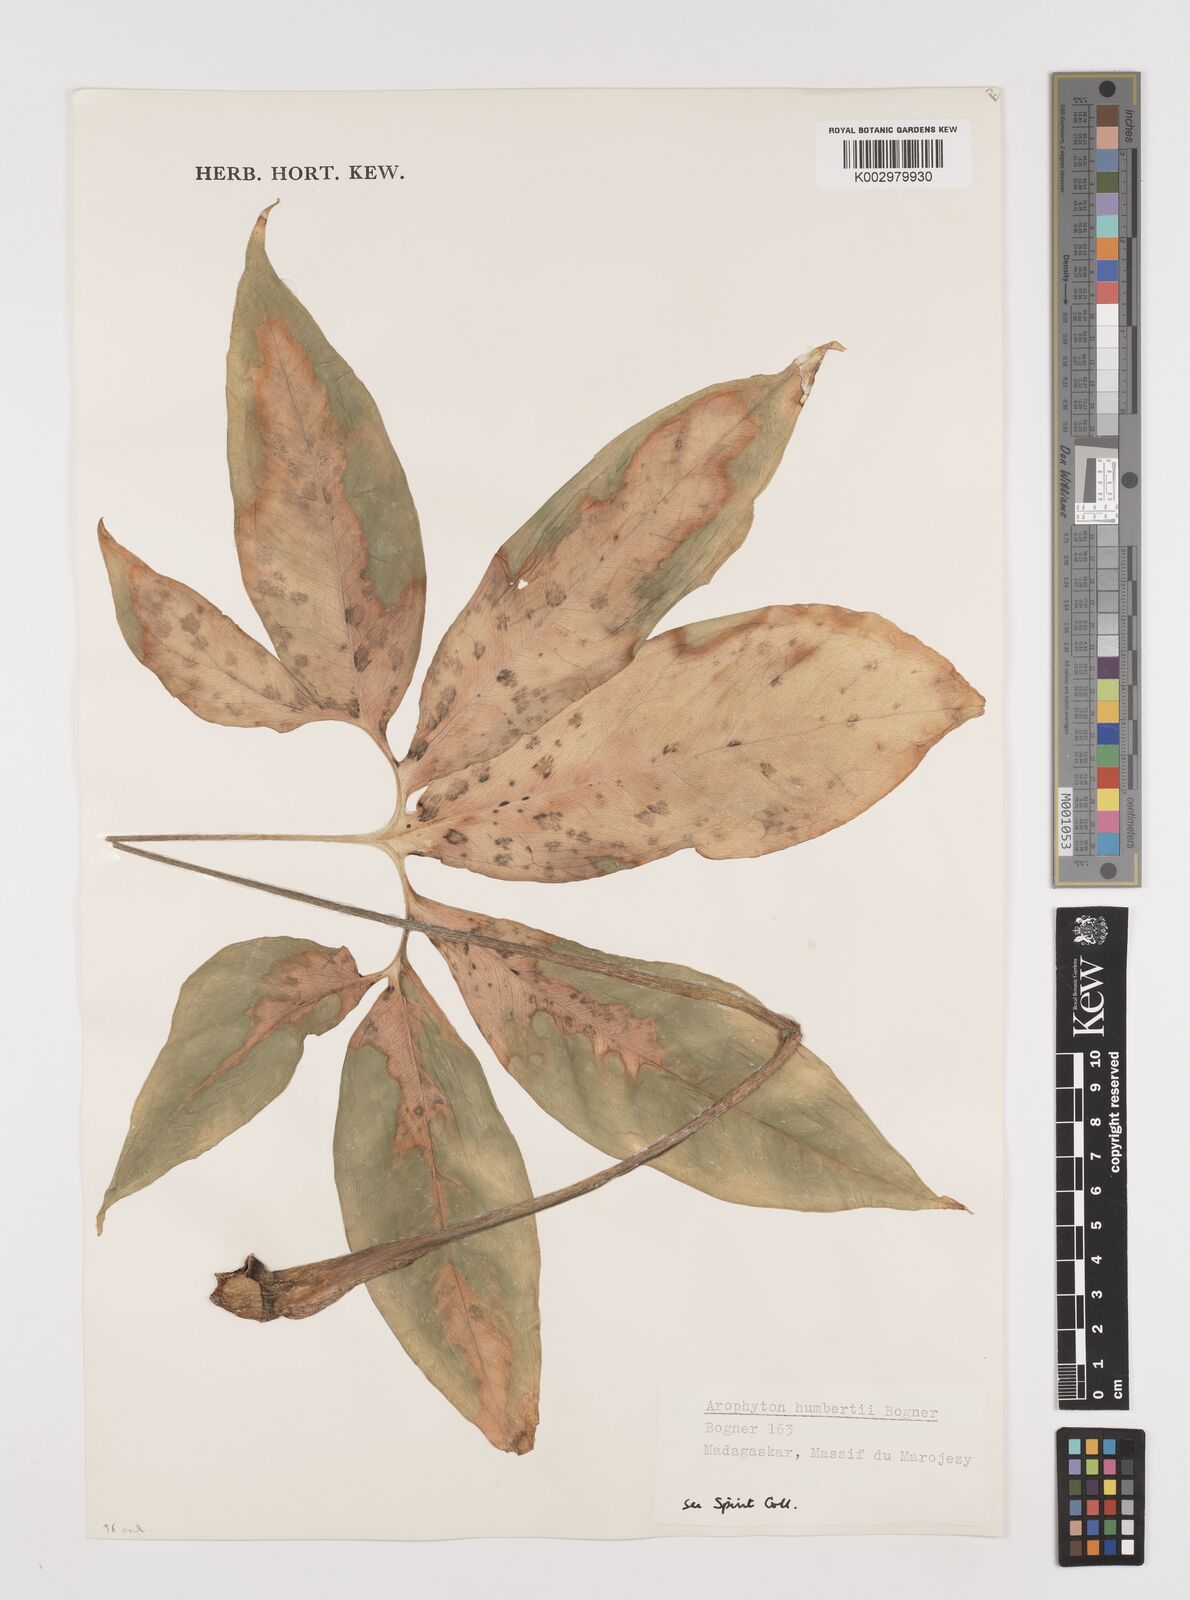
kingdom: Plantae
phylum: Tracheophyta
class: Liliopsida
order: Alismatales
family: Araceae
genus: Arophyton
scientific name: Arophyton humbertii
